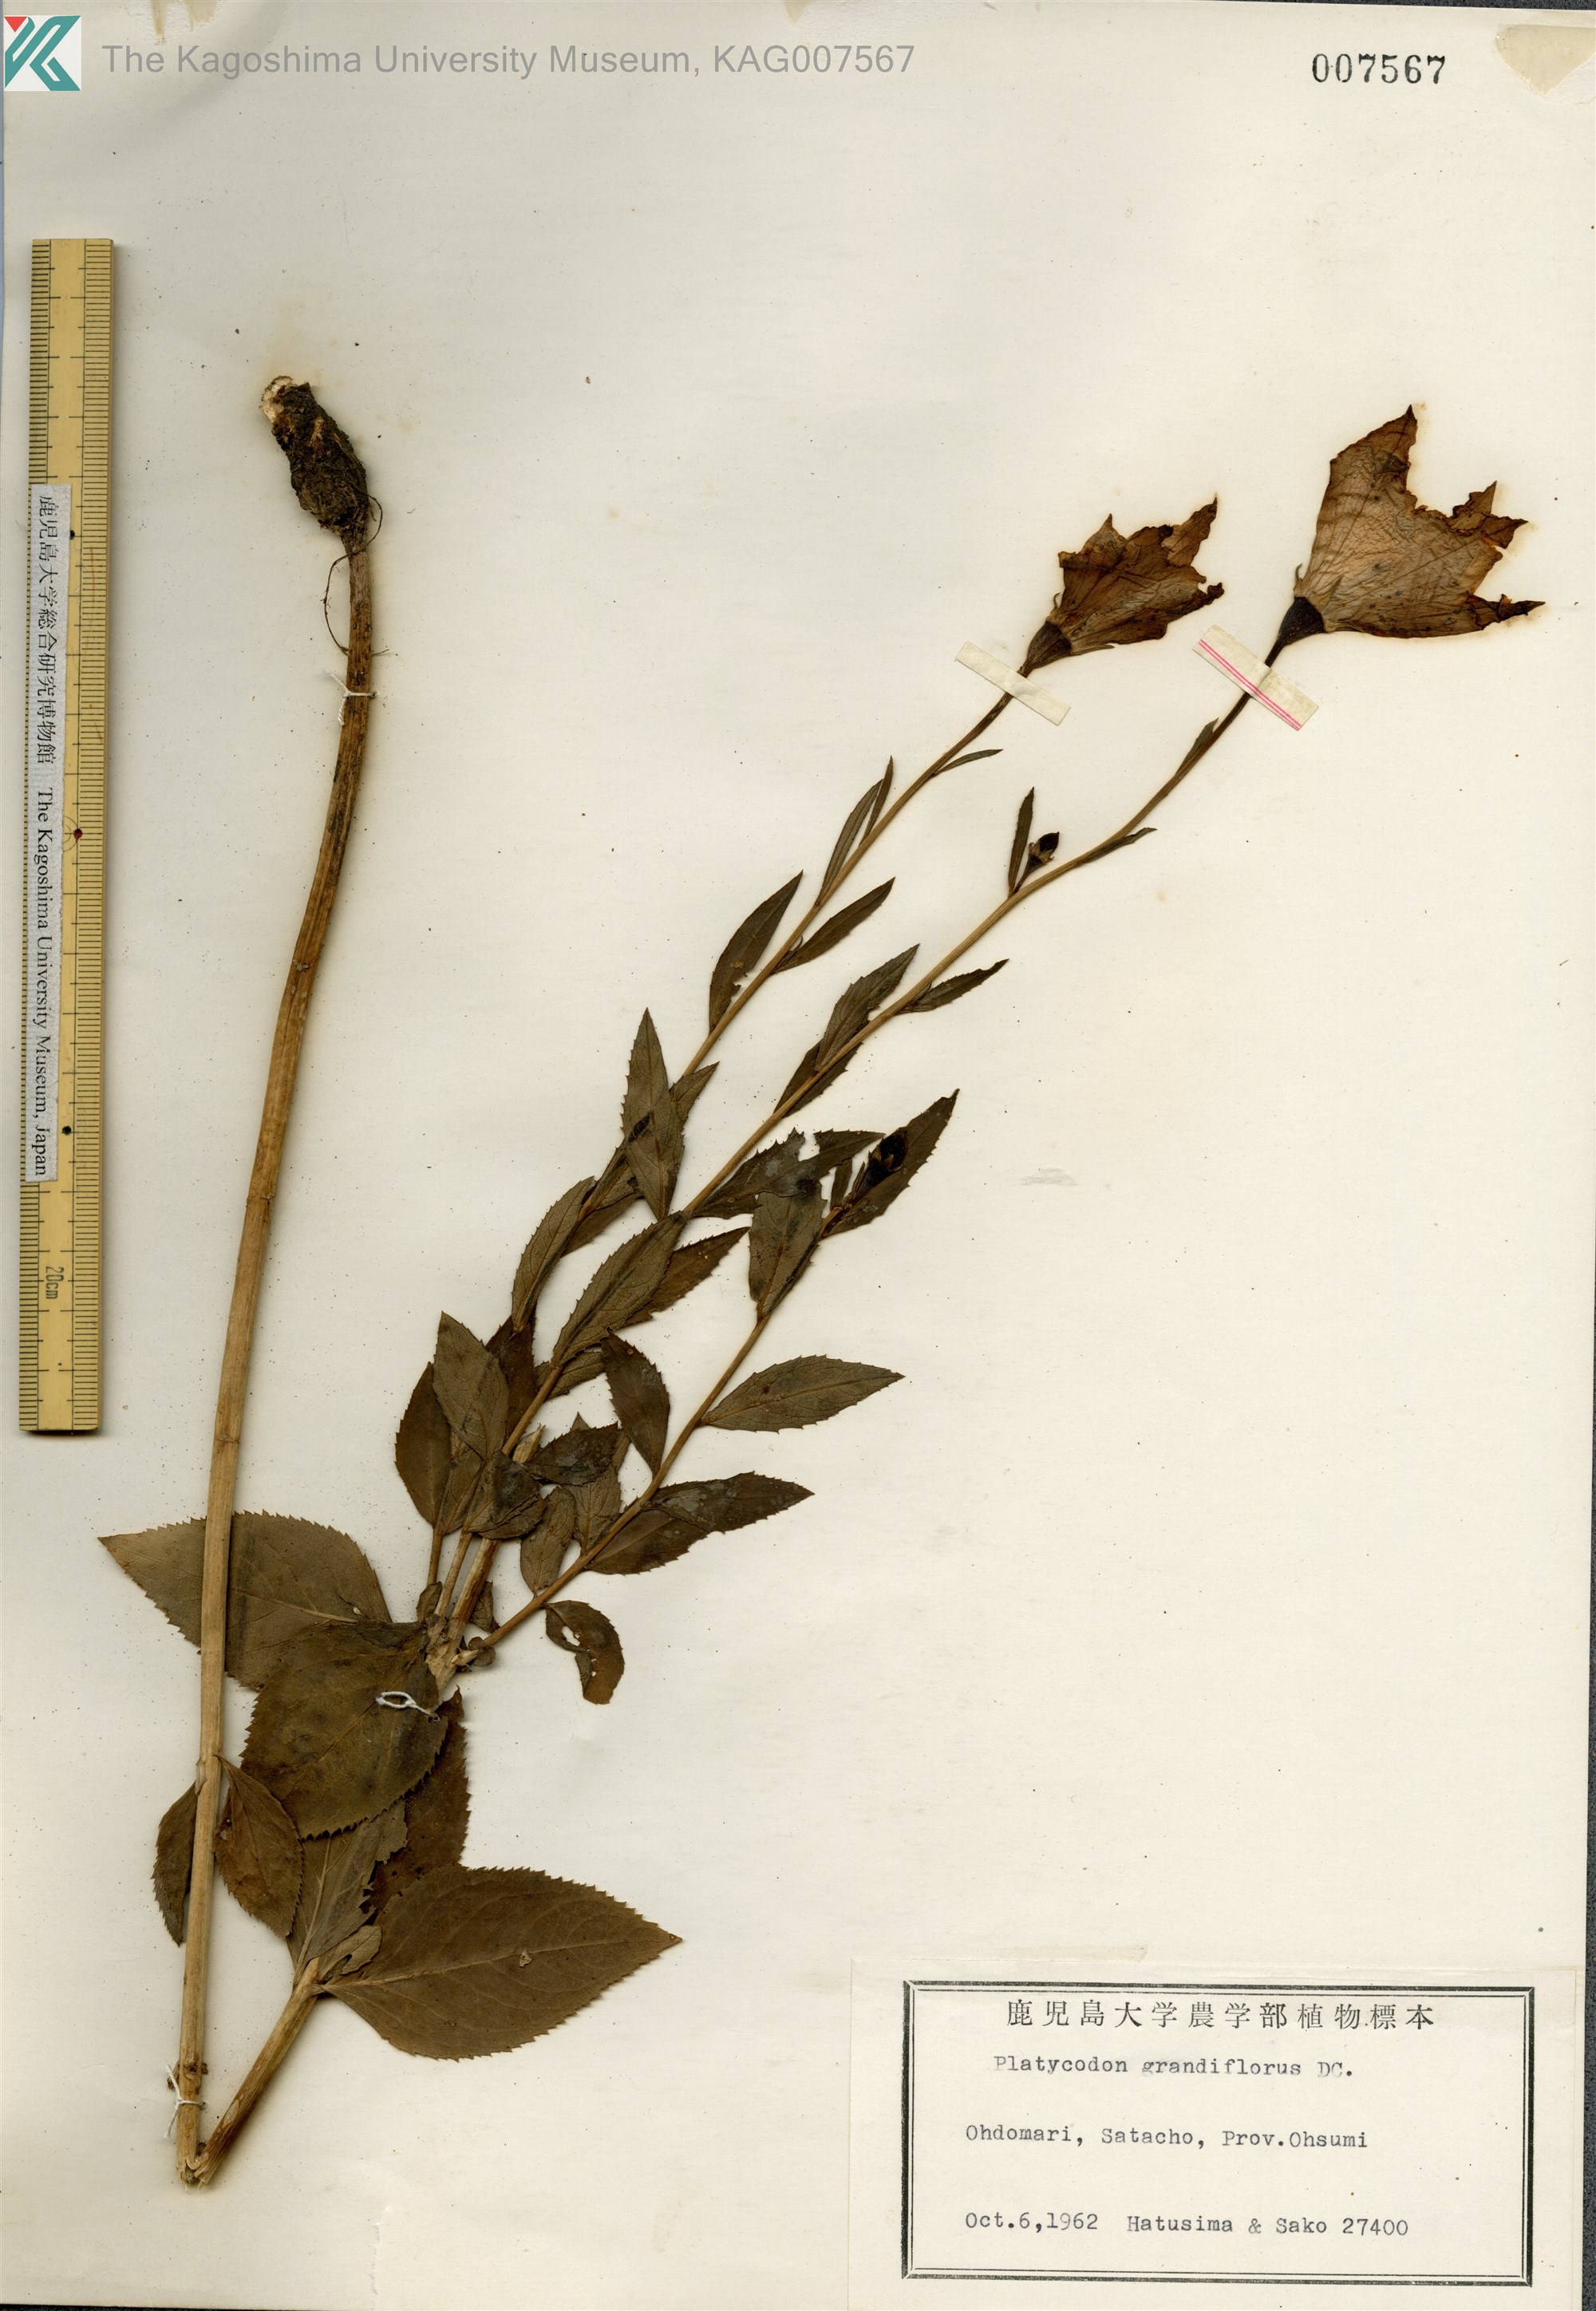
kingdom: Plantae
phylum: Tracheophyta
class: Magnoliopsida
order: Asterales
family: Campanulaceae
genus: Platycodon
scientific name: Platycodon grandiflorus
